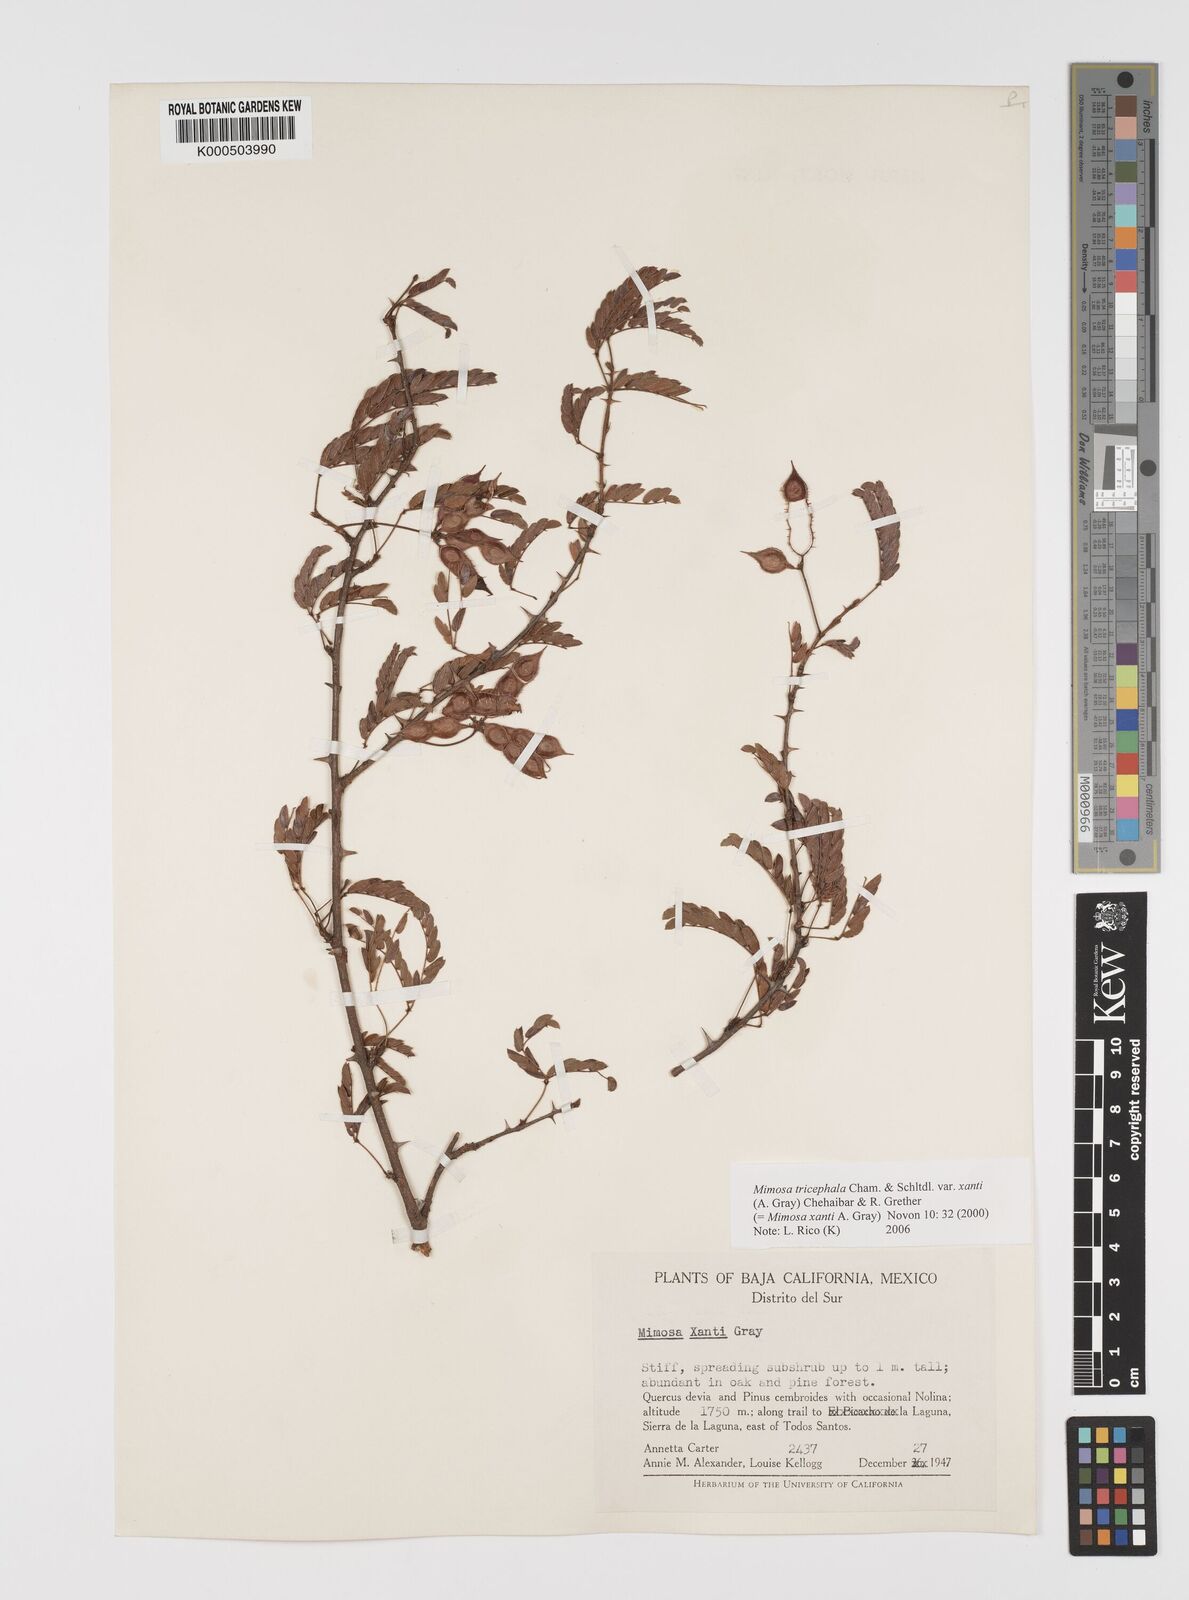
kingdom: Plantae
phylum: Tracheophyta
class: Magnoliopsida
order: Fabales
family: Fabaceae
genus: Mimosa
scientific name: Mimosa tricephala
